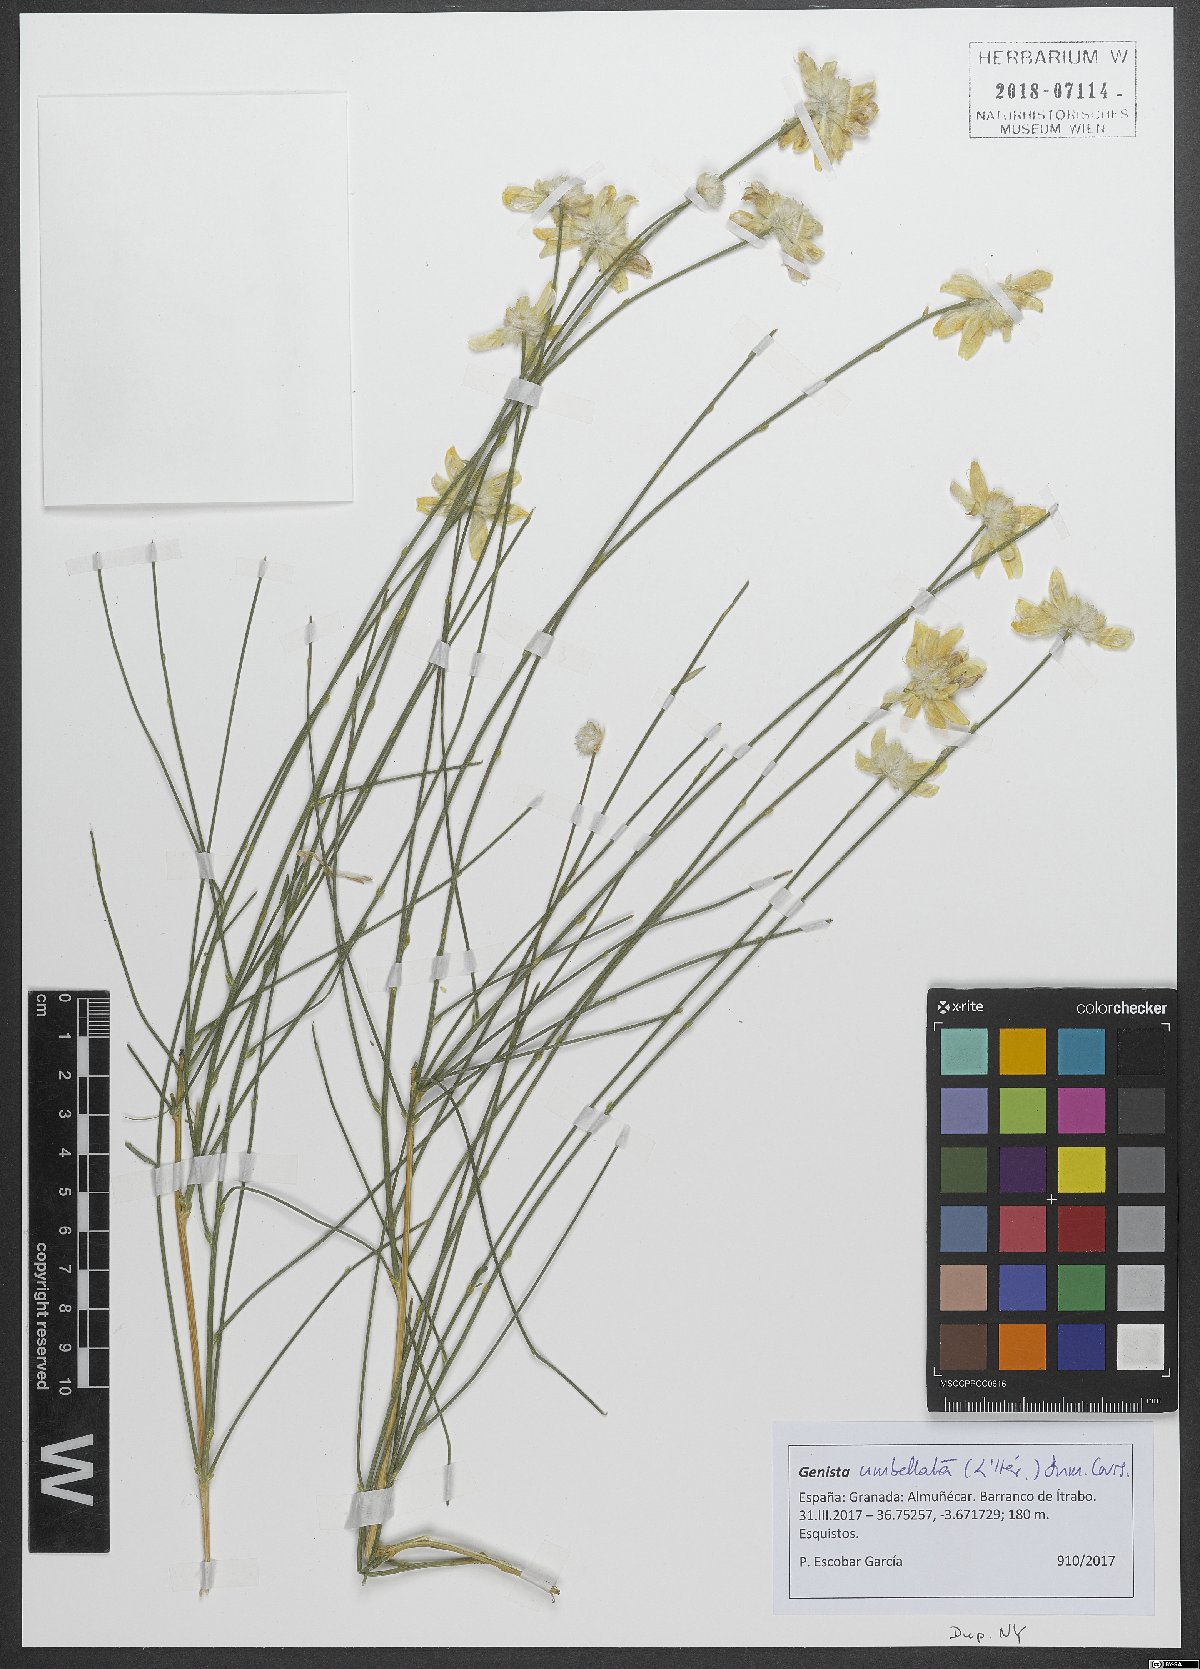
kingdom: Plantae
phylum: Tracheophyta
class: Magnoliopsida
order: Fabales
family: Fabaceae
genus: Genista
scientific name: Genista umbellata
